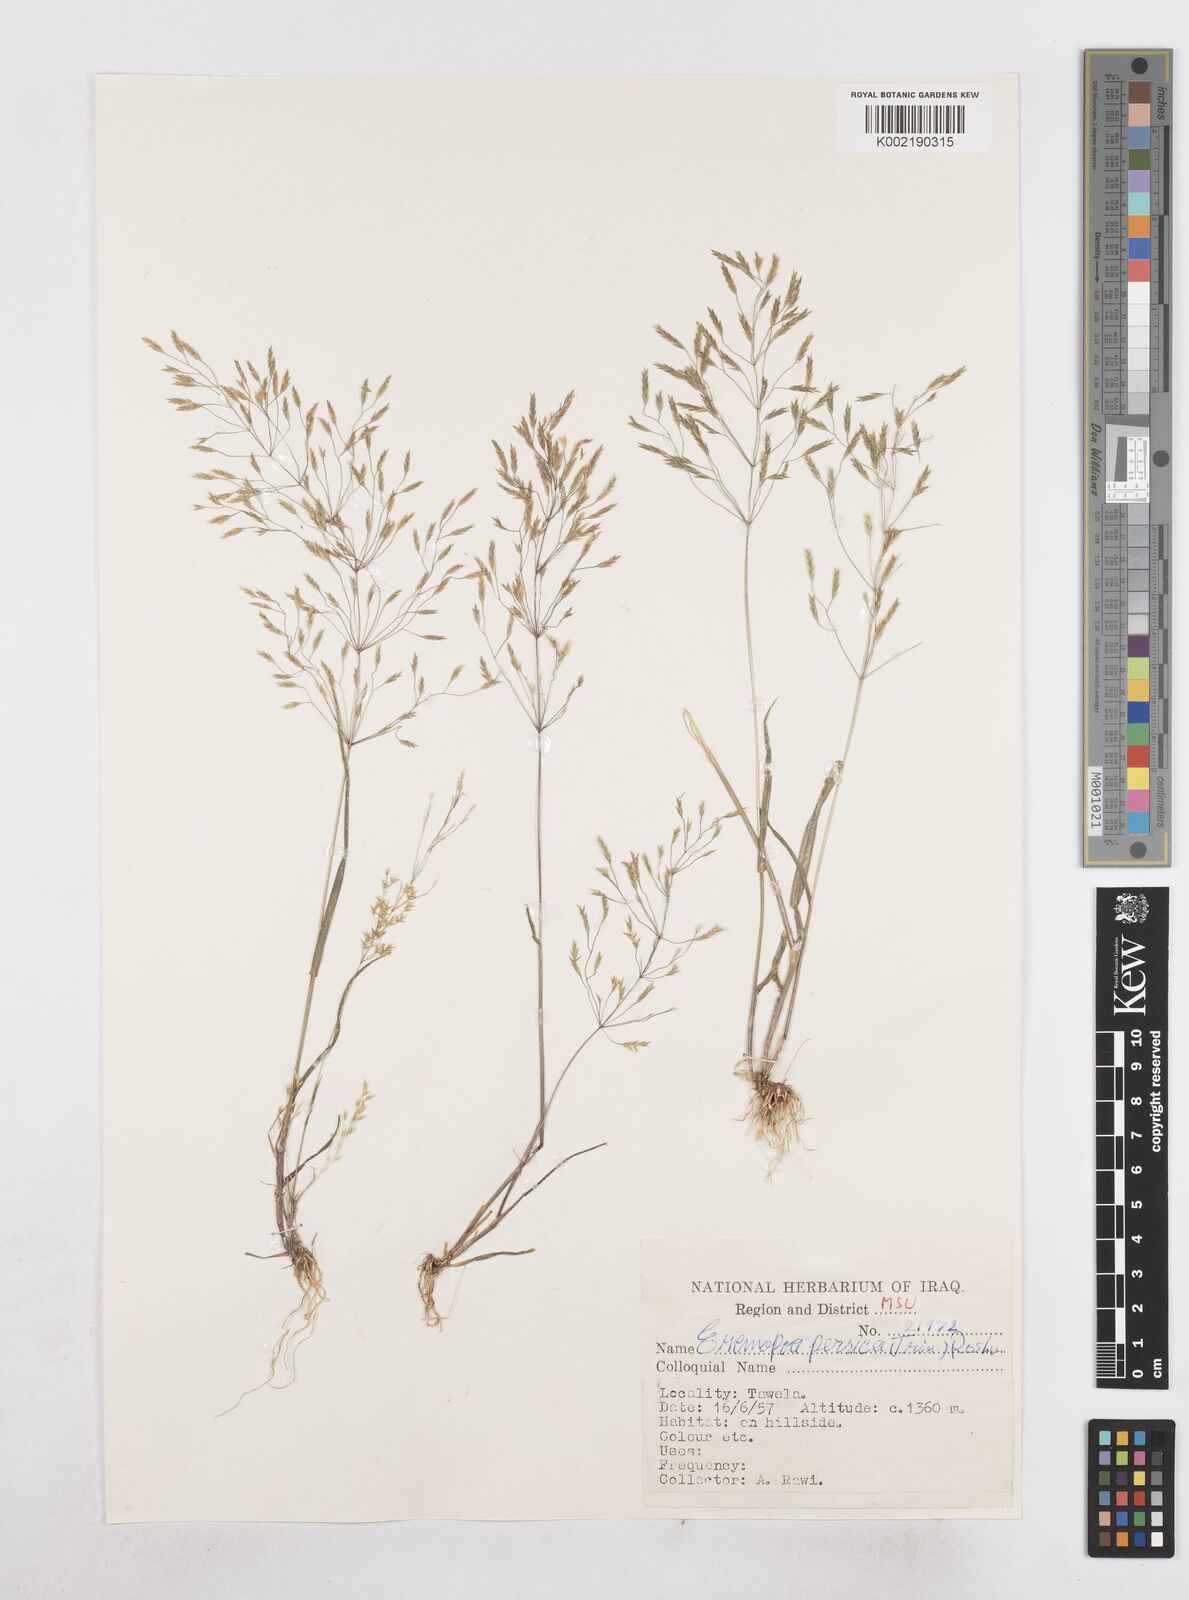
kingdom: Plantae
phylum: Tracheophyta
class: Liliopsida
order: Poales
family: Poaceae
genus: Poa
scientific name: Poa persica
